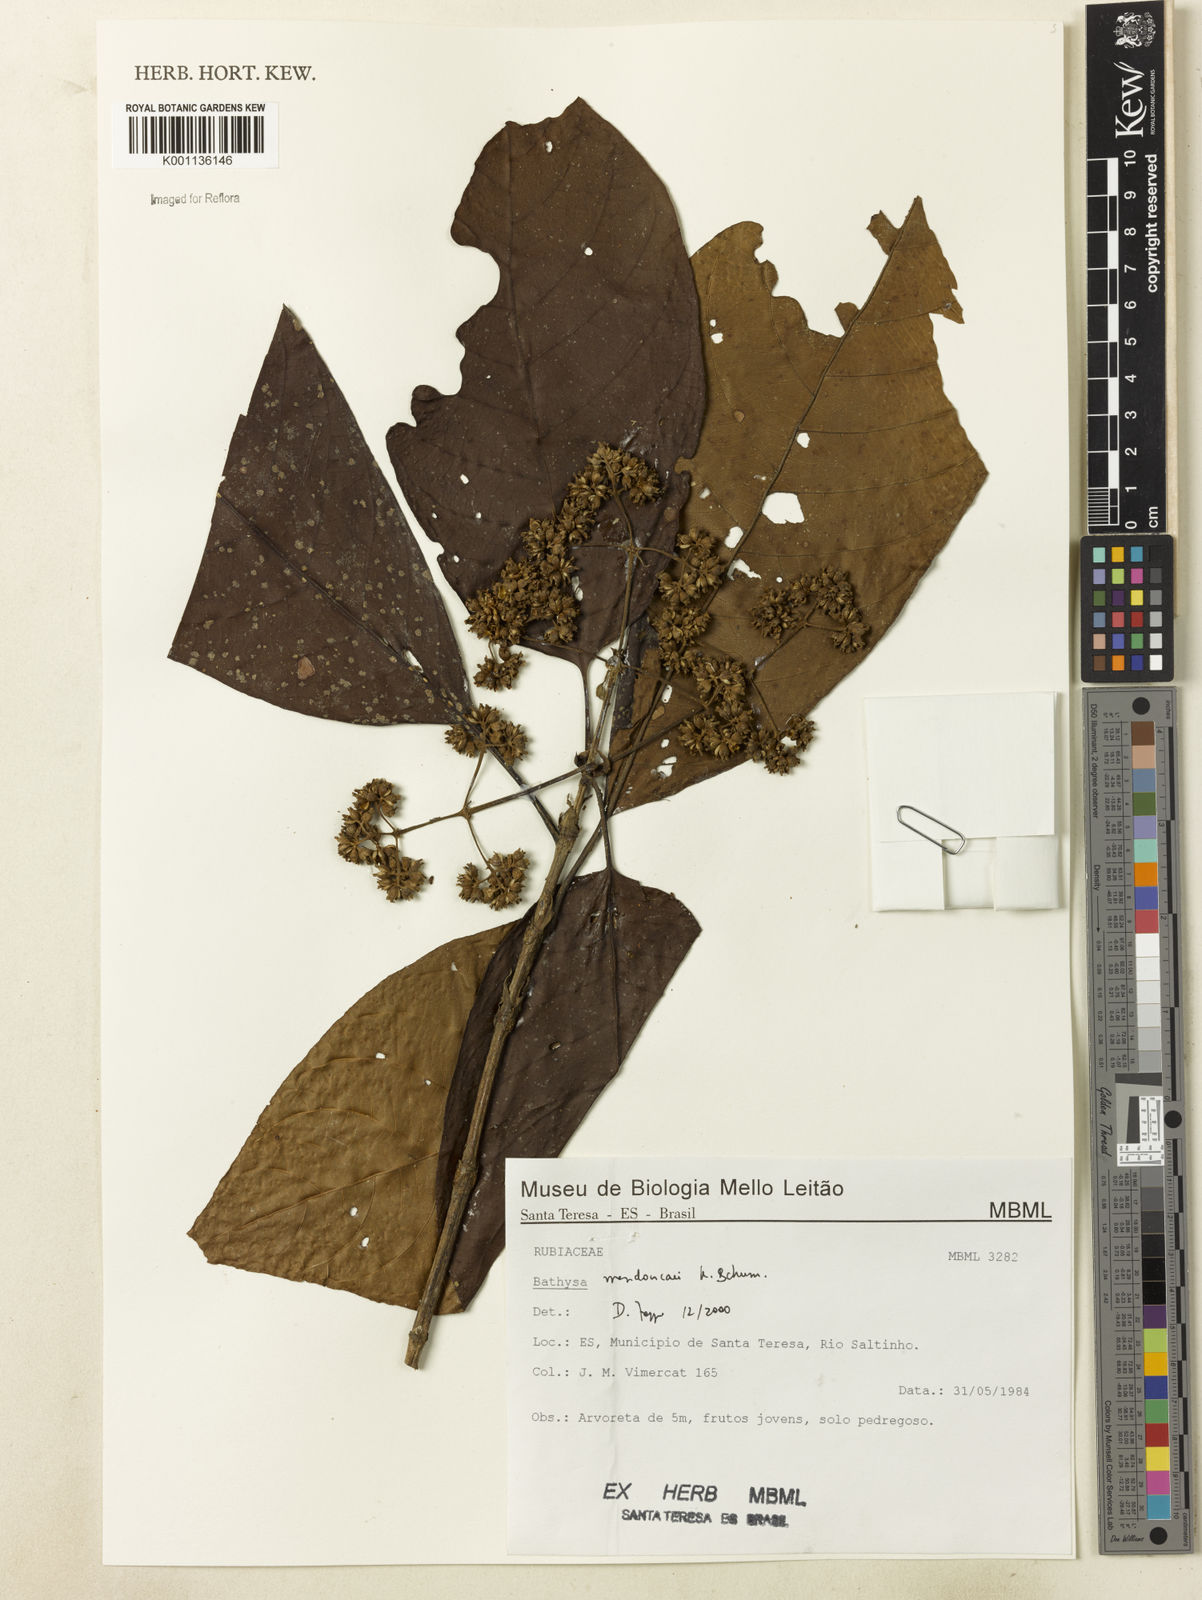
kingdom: Plantae
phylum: Tracheophyta
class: Magnoliopsida
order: Gentianales
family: Rubiaceae
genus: Bathysa
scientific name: Bathysa
